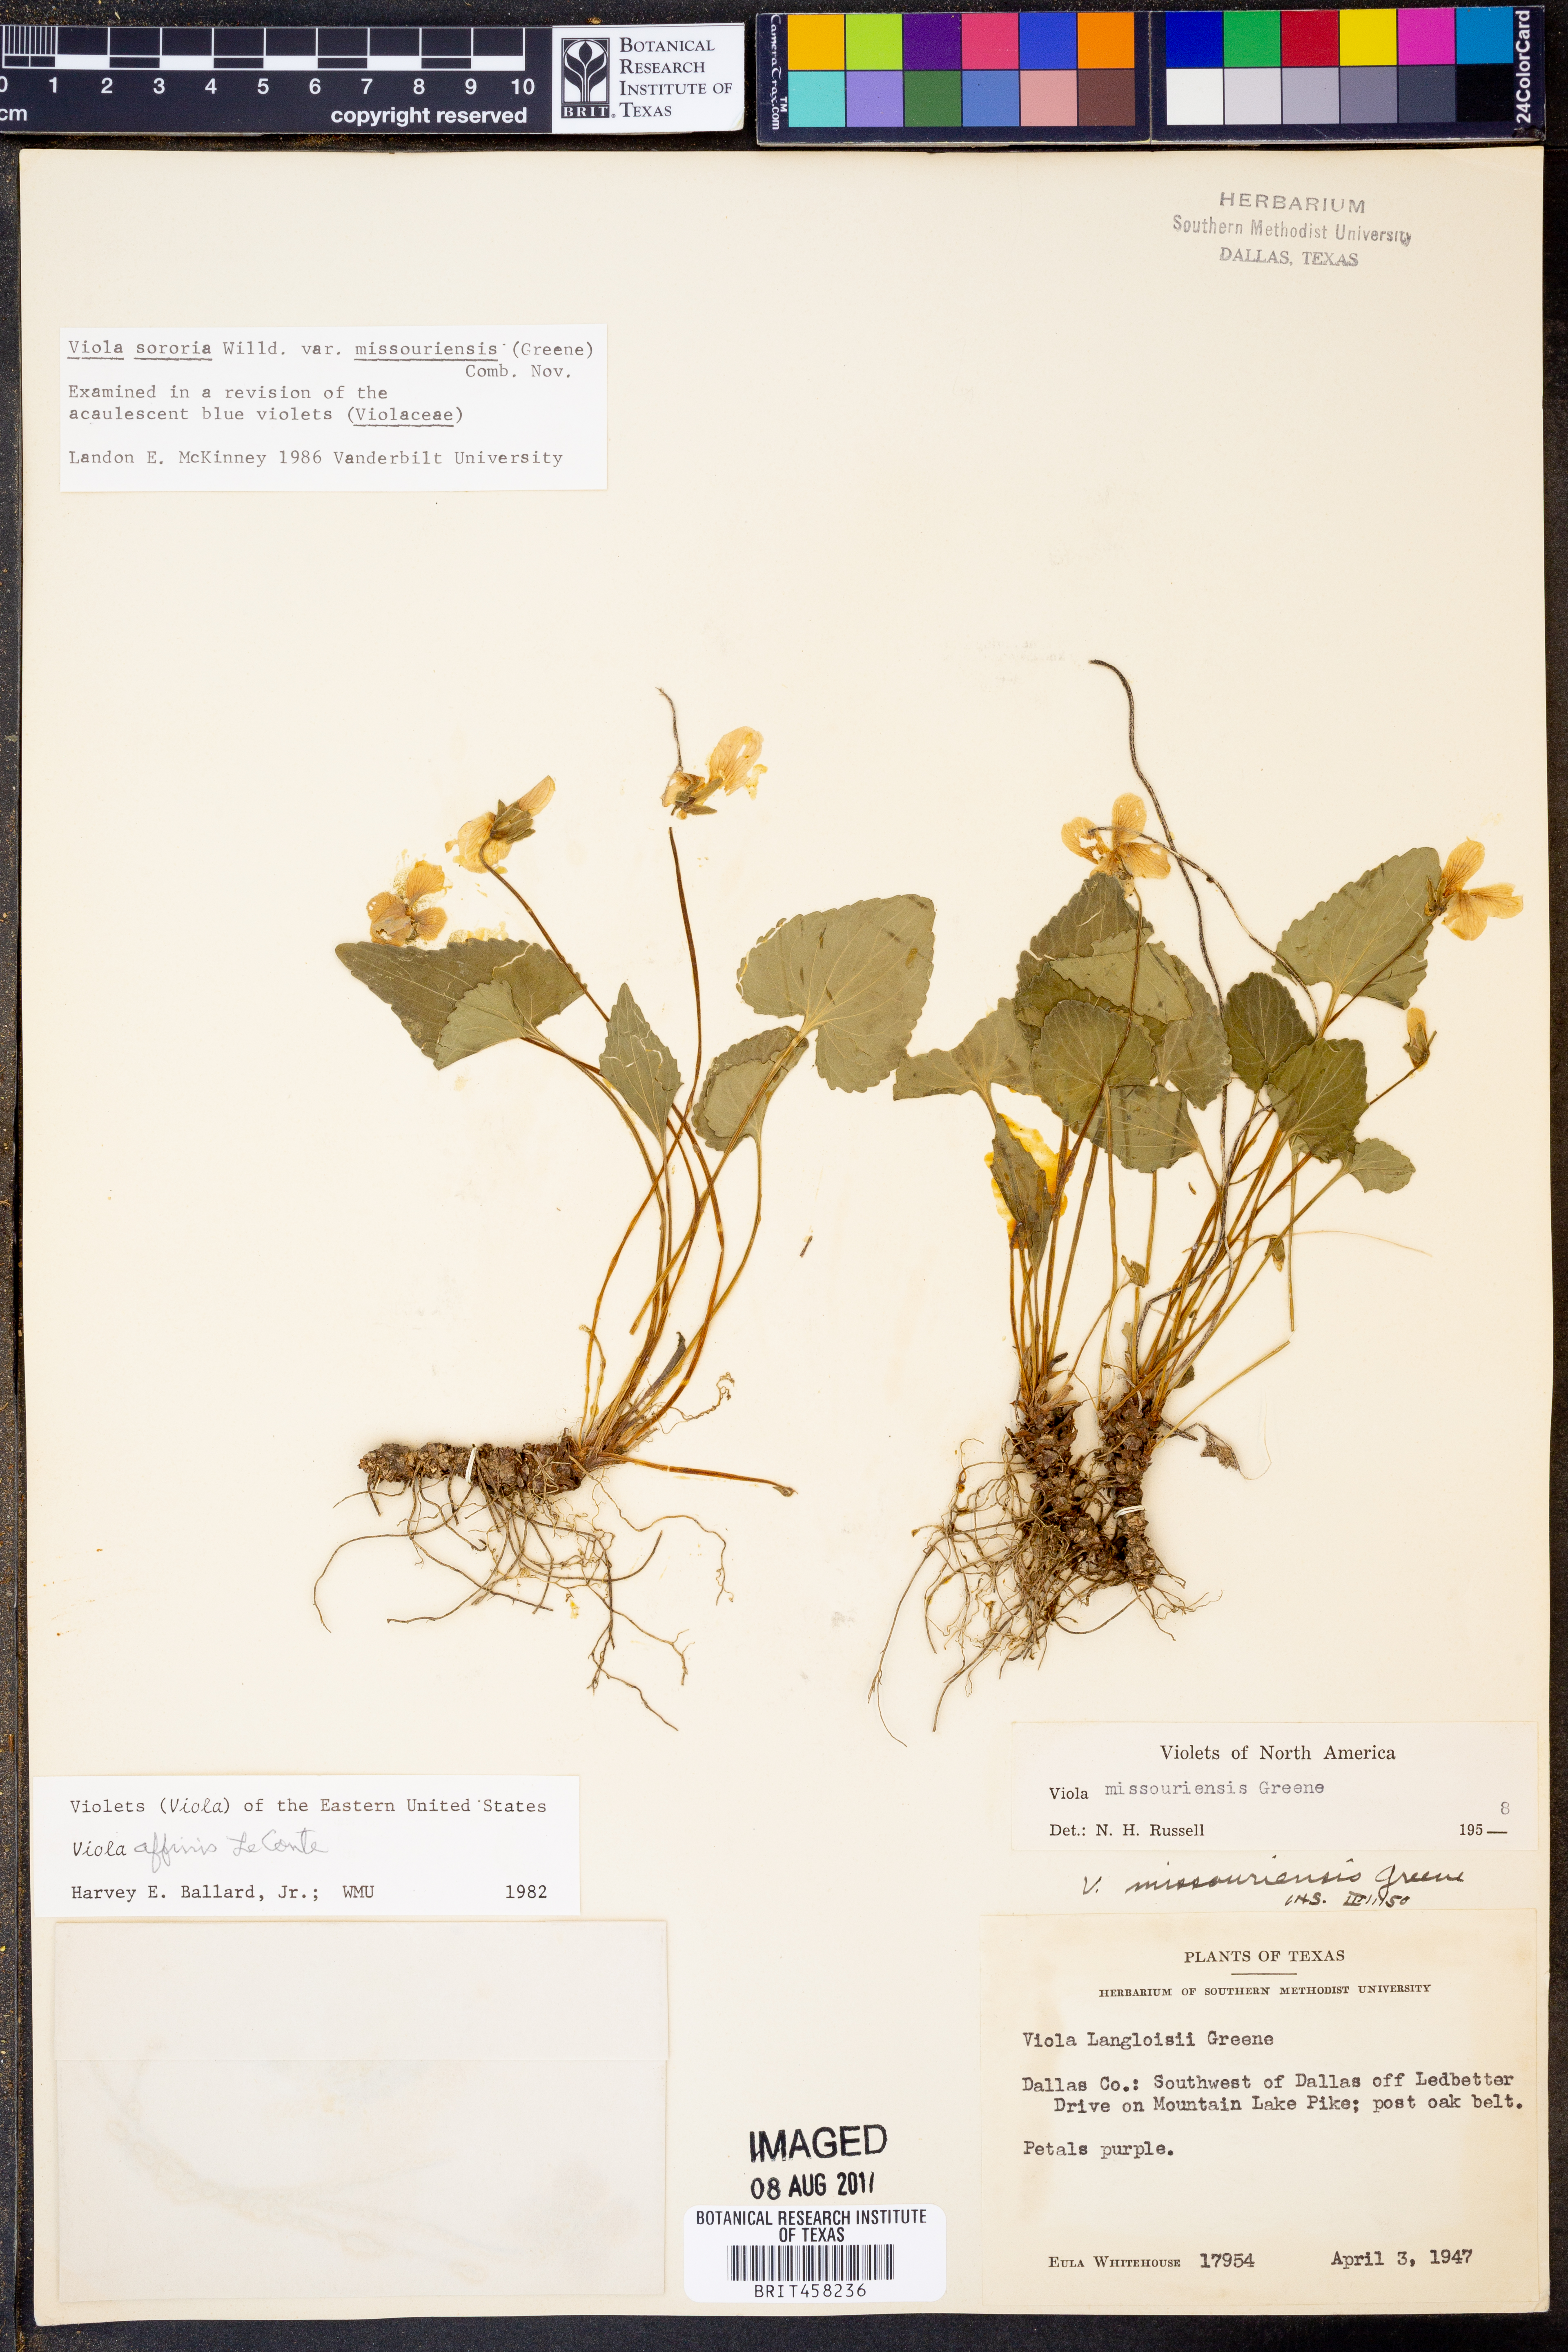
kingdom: Plantae
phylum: Tracheophyta
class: Magnoliopsida
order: Malpighiales
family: Violaceae
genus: Viola
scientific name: Viola missouriensis
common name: Missouri violet
